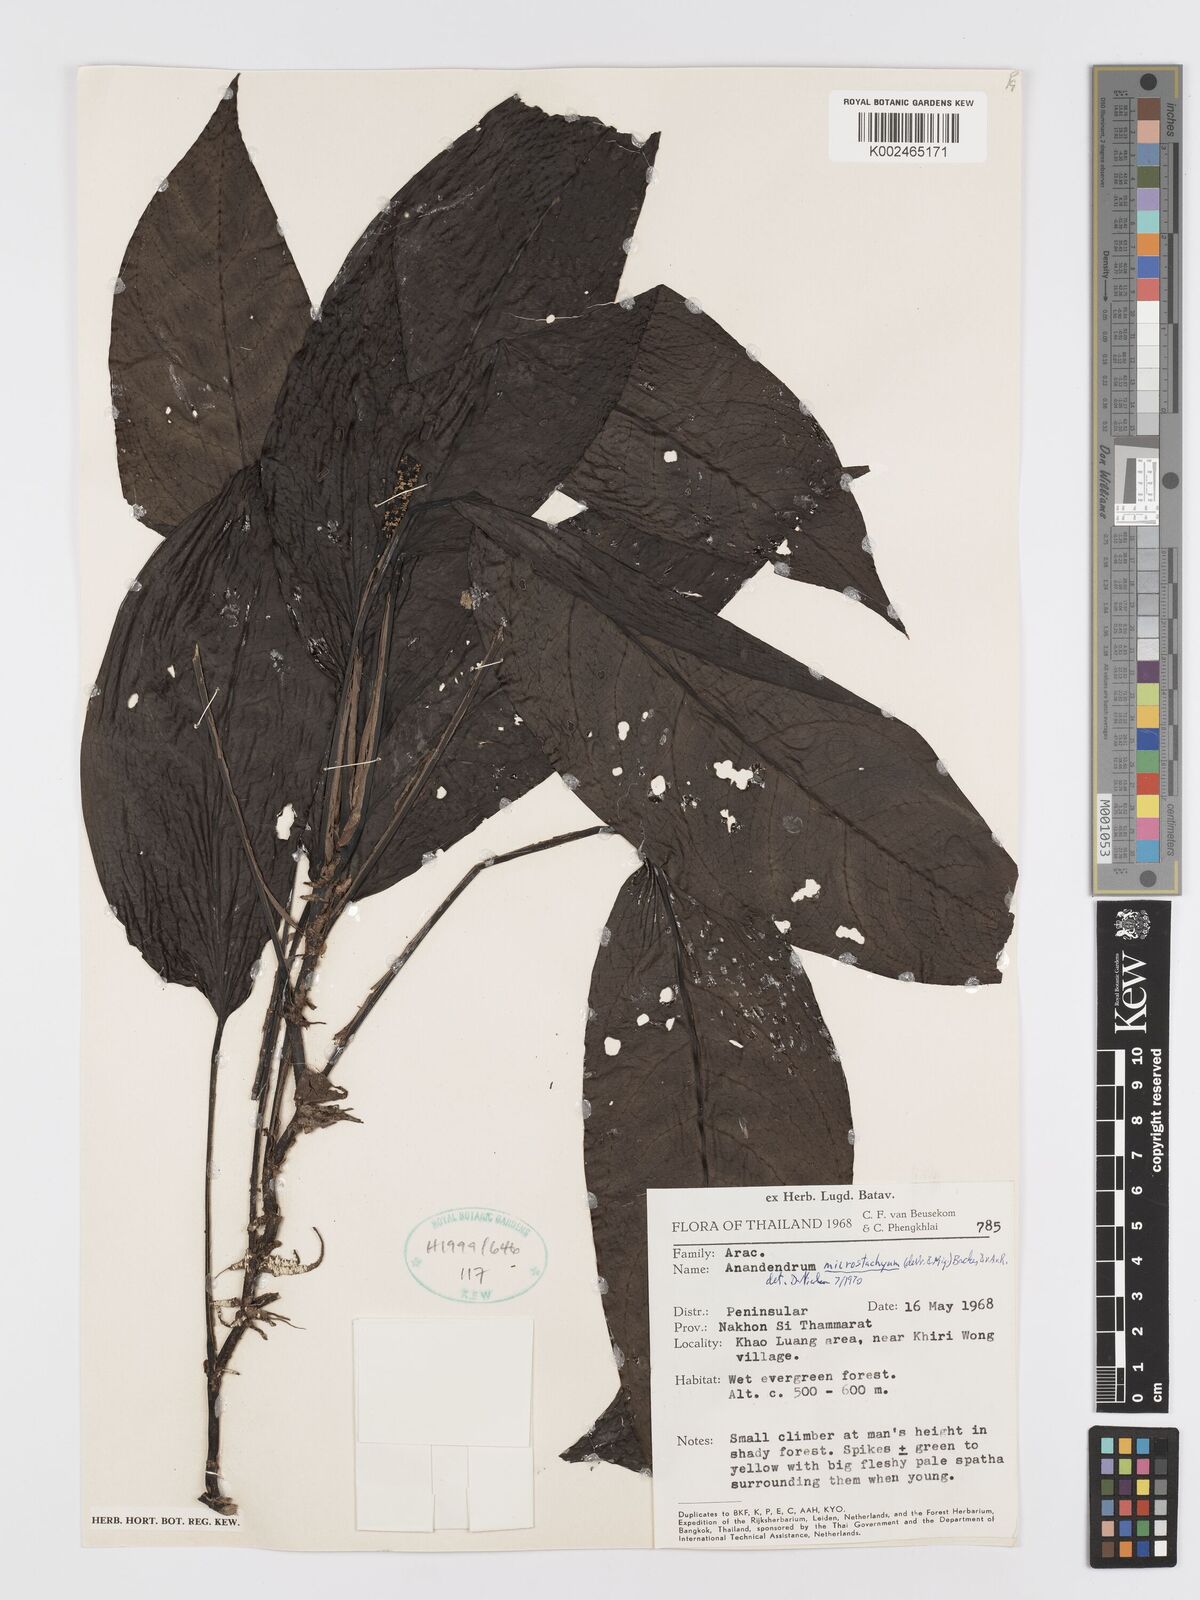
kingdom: Plantae
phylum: Tracheophyta
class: Liliopsida
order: Alismatales
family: Araceae
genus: Anadendrum
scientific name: Anadendrum microstachyum
